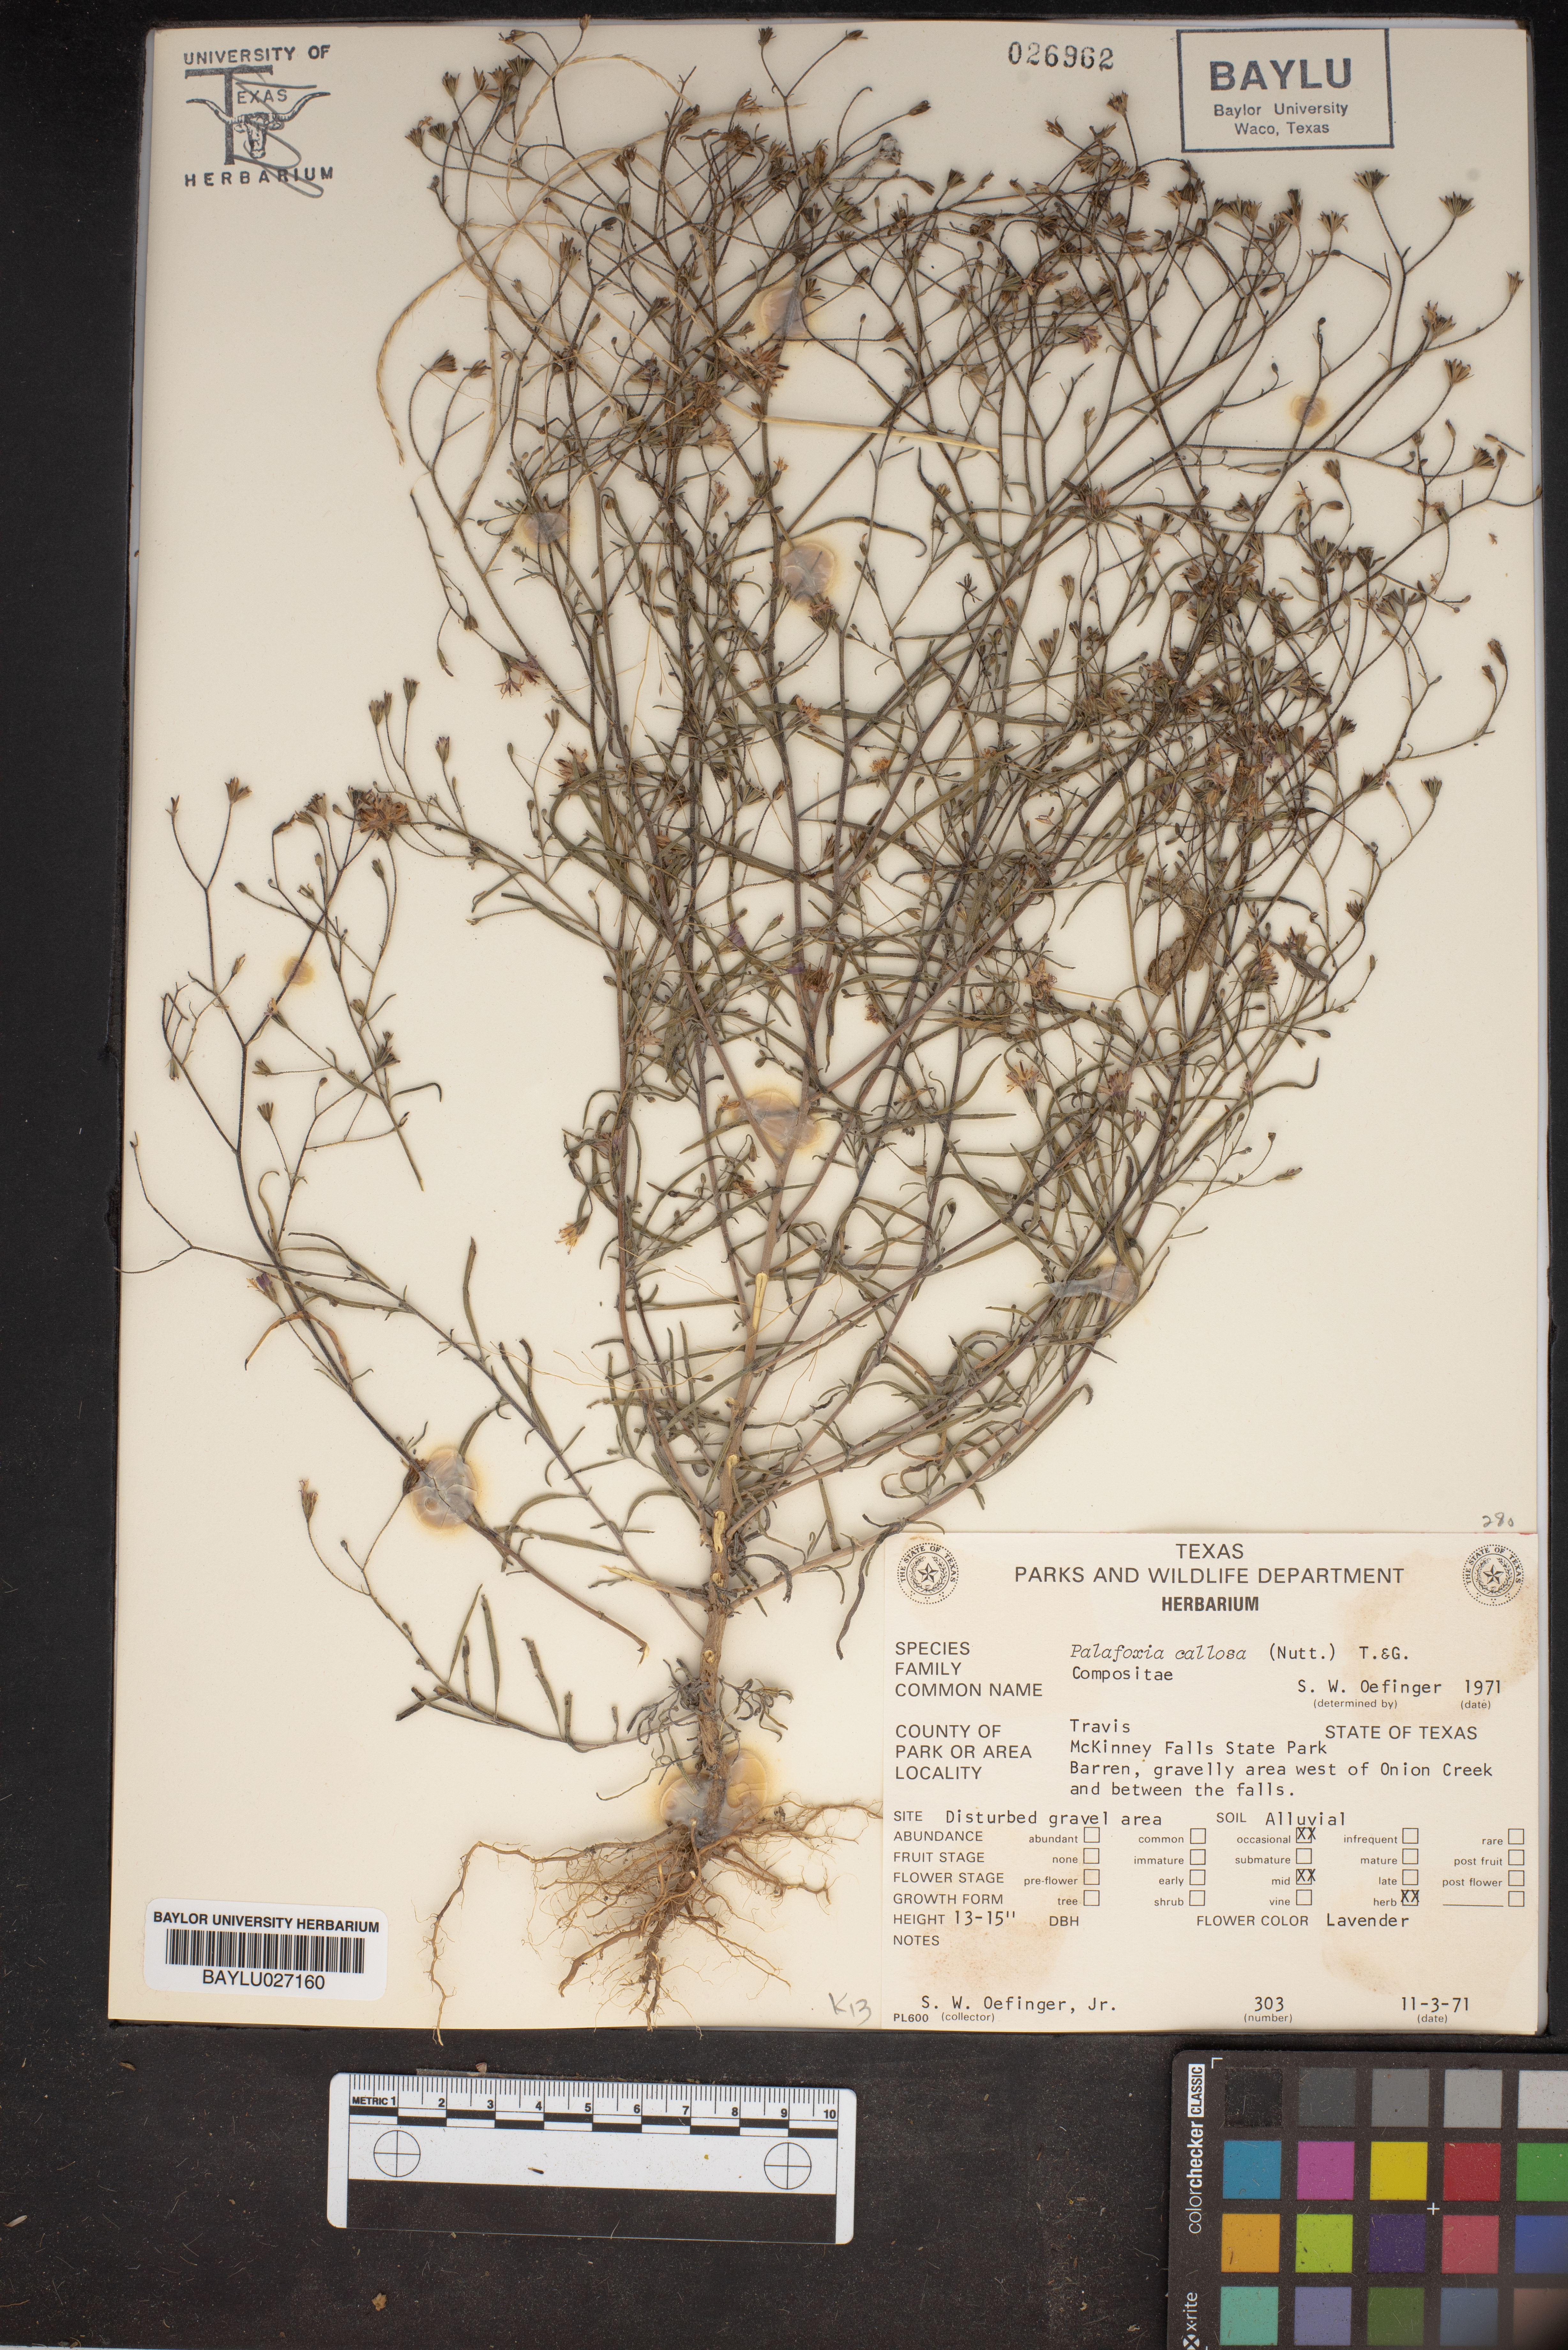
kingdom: Plantae
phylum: Tracheophyta
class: Magnoliopsida
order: Asterales
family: Asteraceae
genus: Palafoxia
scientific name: Palafoxia callosa
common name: Small palafox
